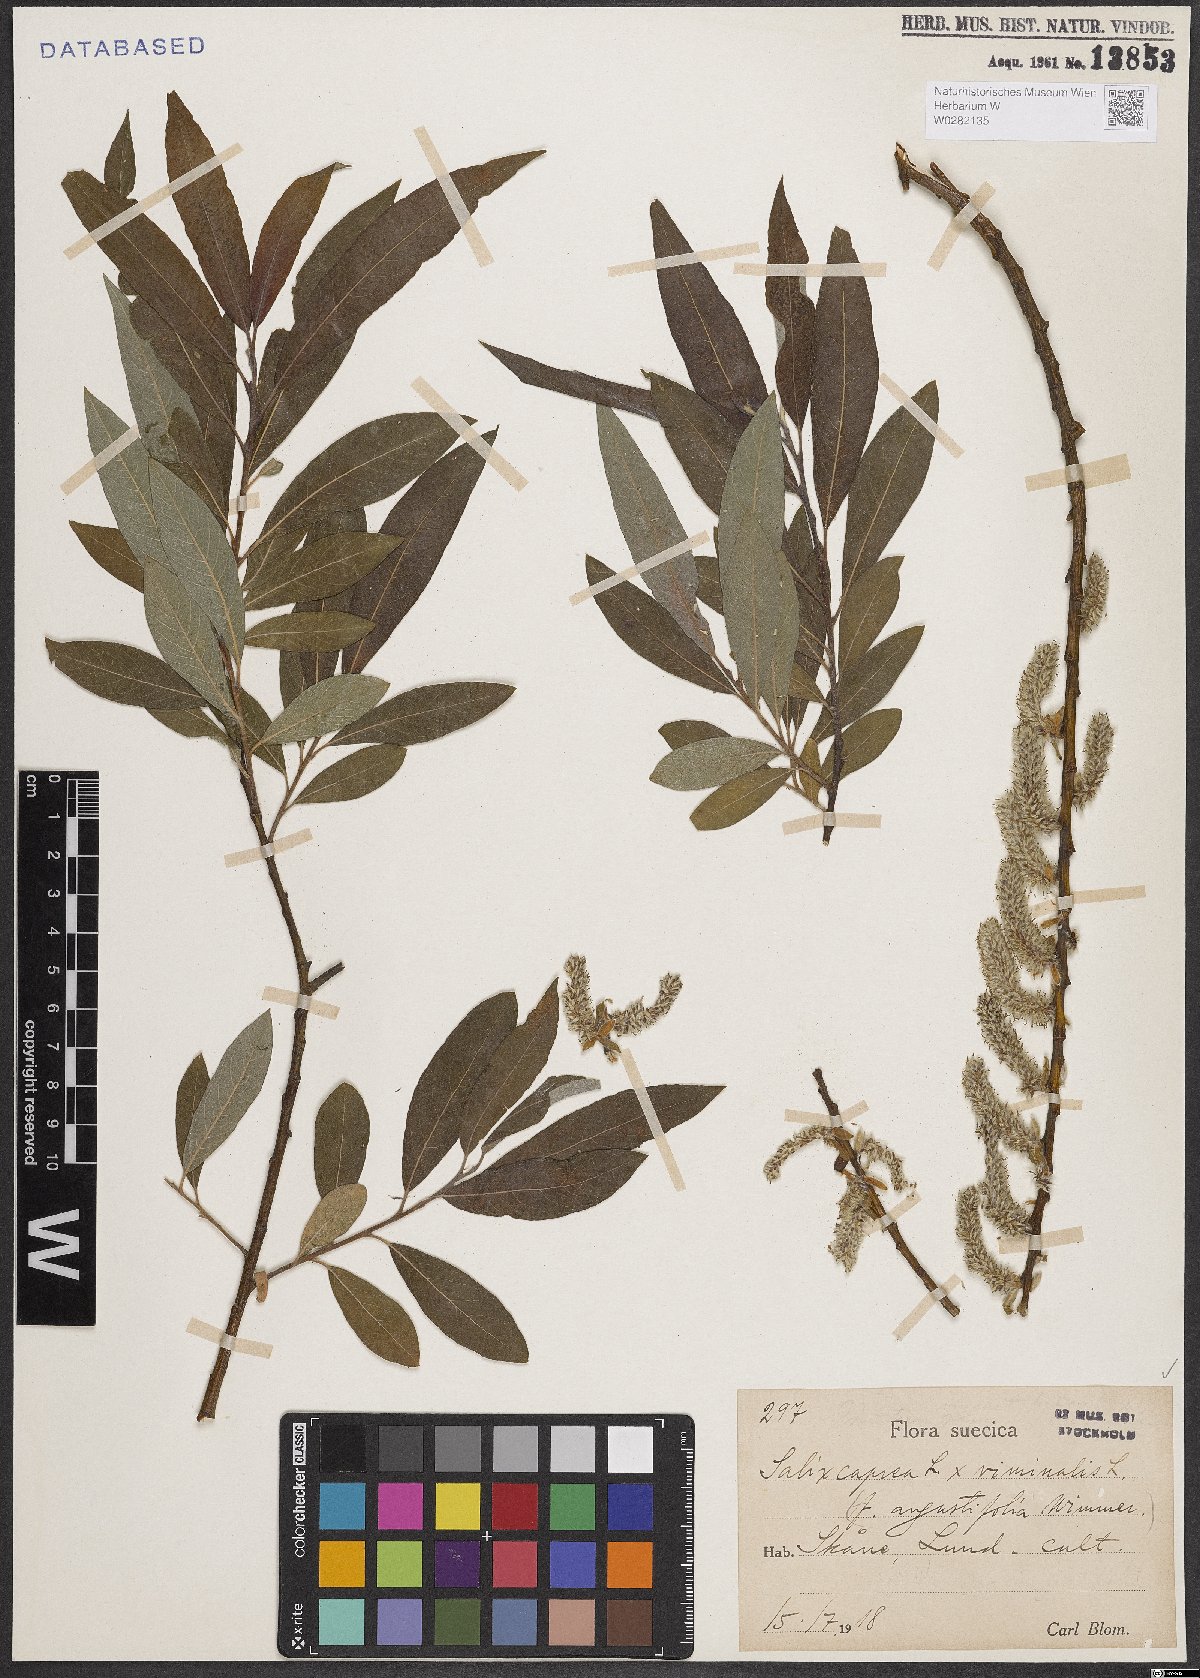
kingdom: Plantae
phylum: Tracheophyta
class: Magnoliopsida
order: Malpighiales
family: Salicaceae
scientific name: Salicaceae
